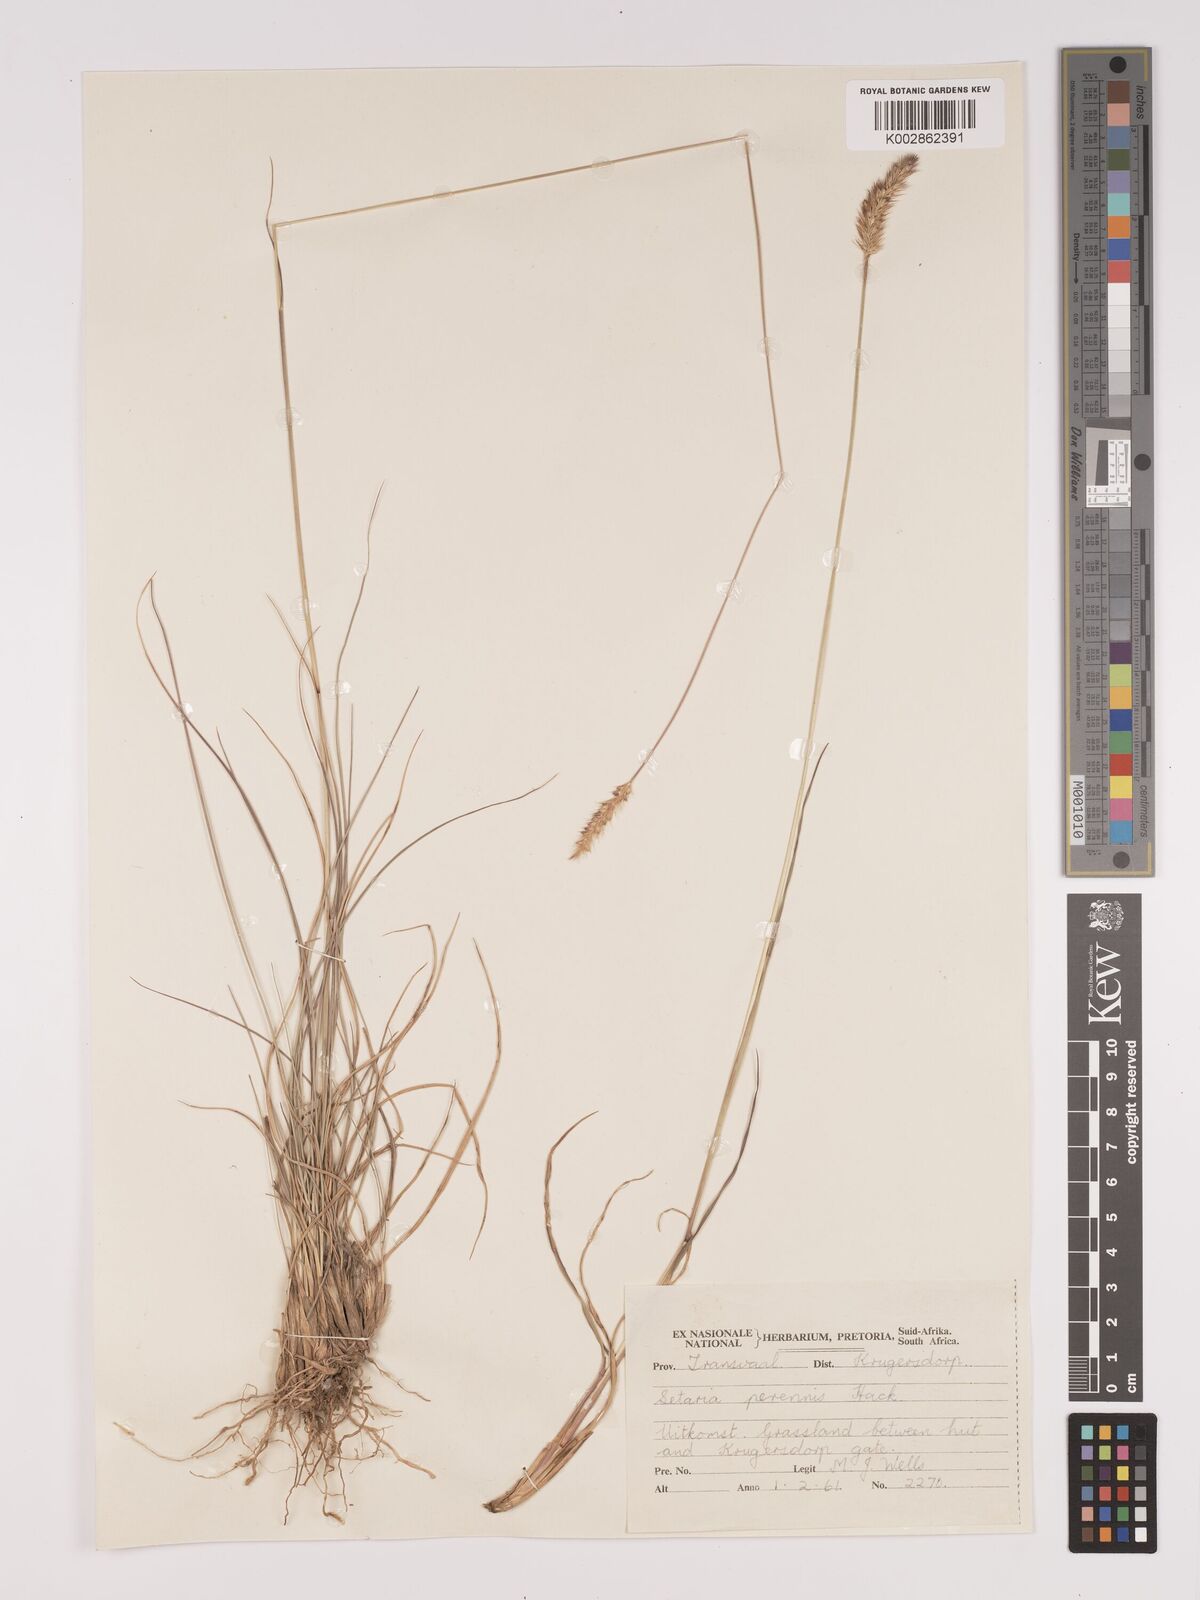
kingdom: Plantae
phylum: Tracheophyta
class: Liliopsida
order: Poales
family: Poaceae
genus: Setaria
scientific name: Setaria sphacelata
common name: African bristlegrass
